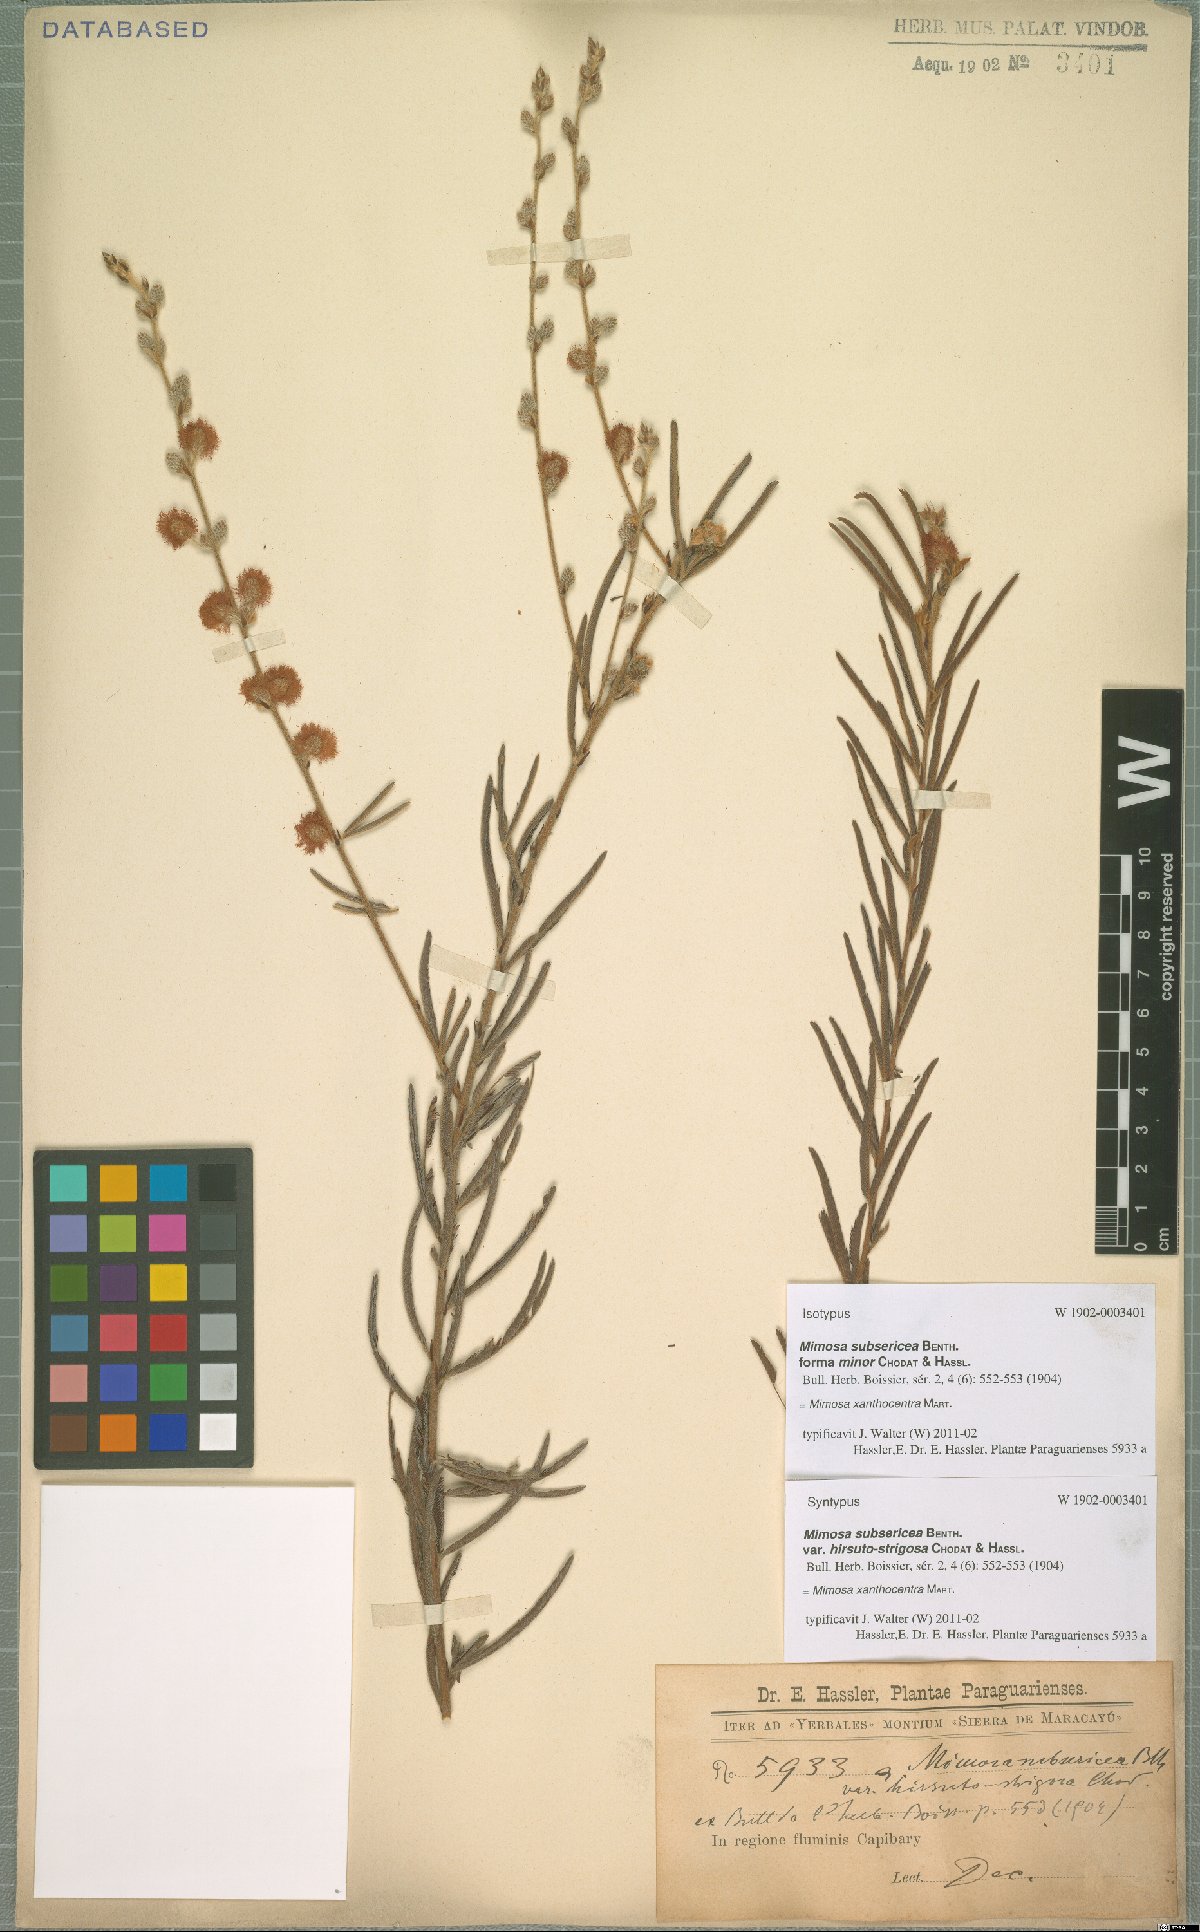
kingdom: Plantae
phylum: Tracheophyta
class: Magnoliopsida
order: Fabales
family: Fabaceae
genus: Mimosa
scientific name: Mimosa xanthocentra
